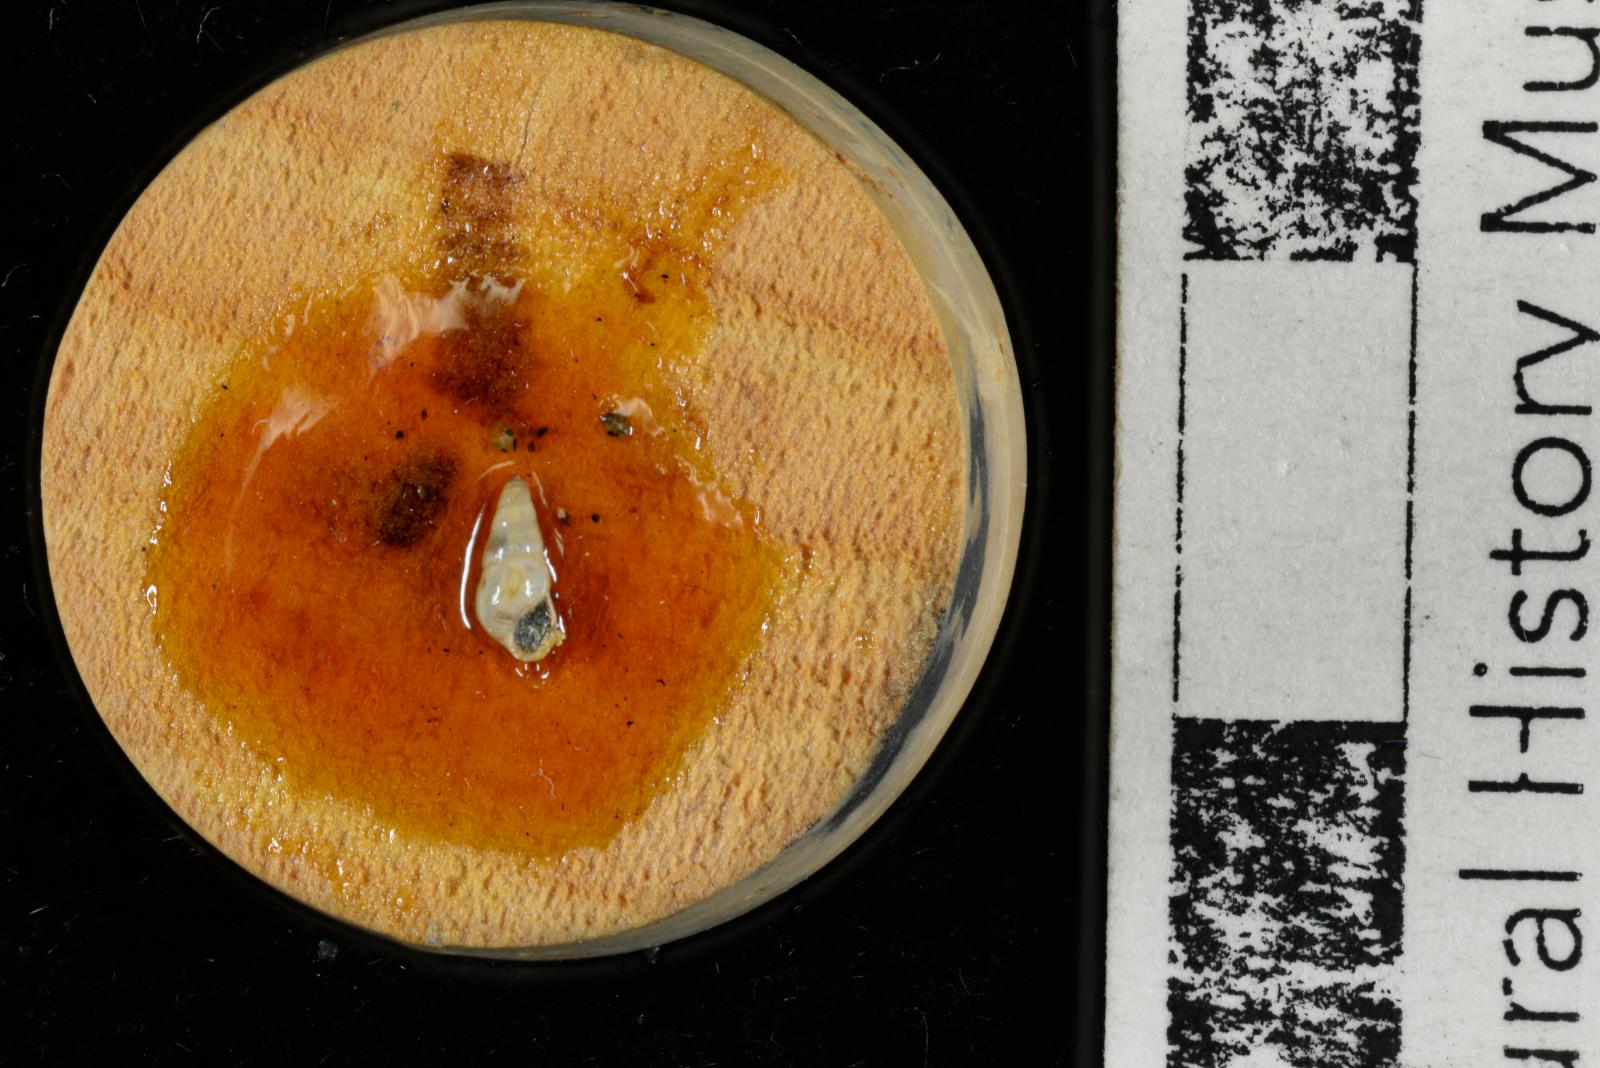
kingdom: Animalia
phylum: Mollusca
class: Gastropoda
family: Pseudomelaniidae
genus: Liocium
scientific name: Liocium punctatum
